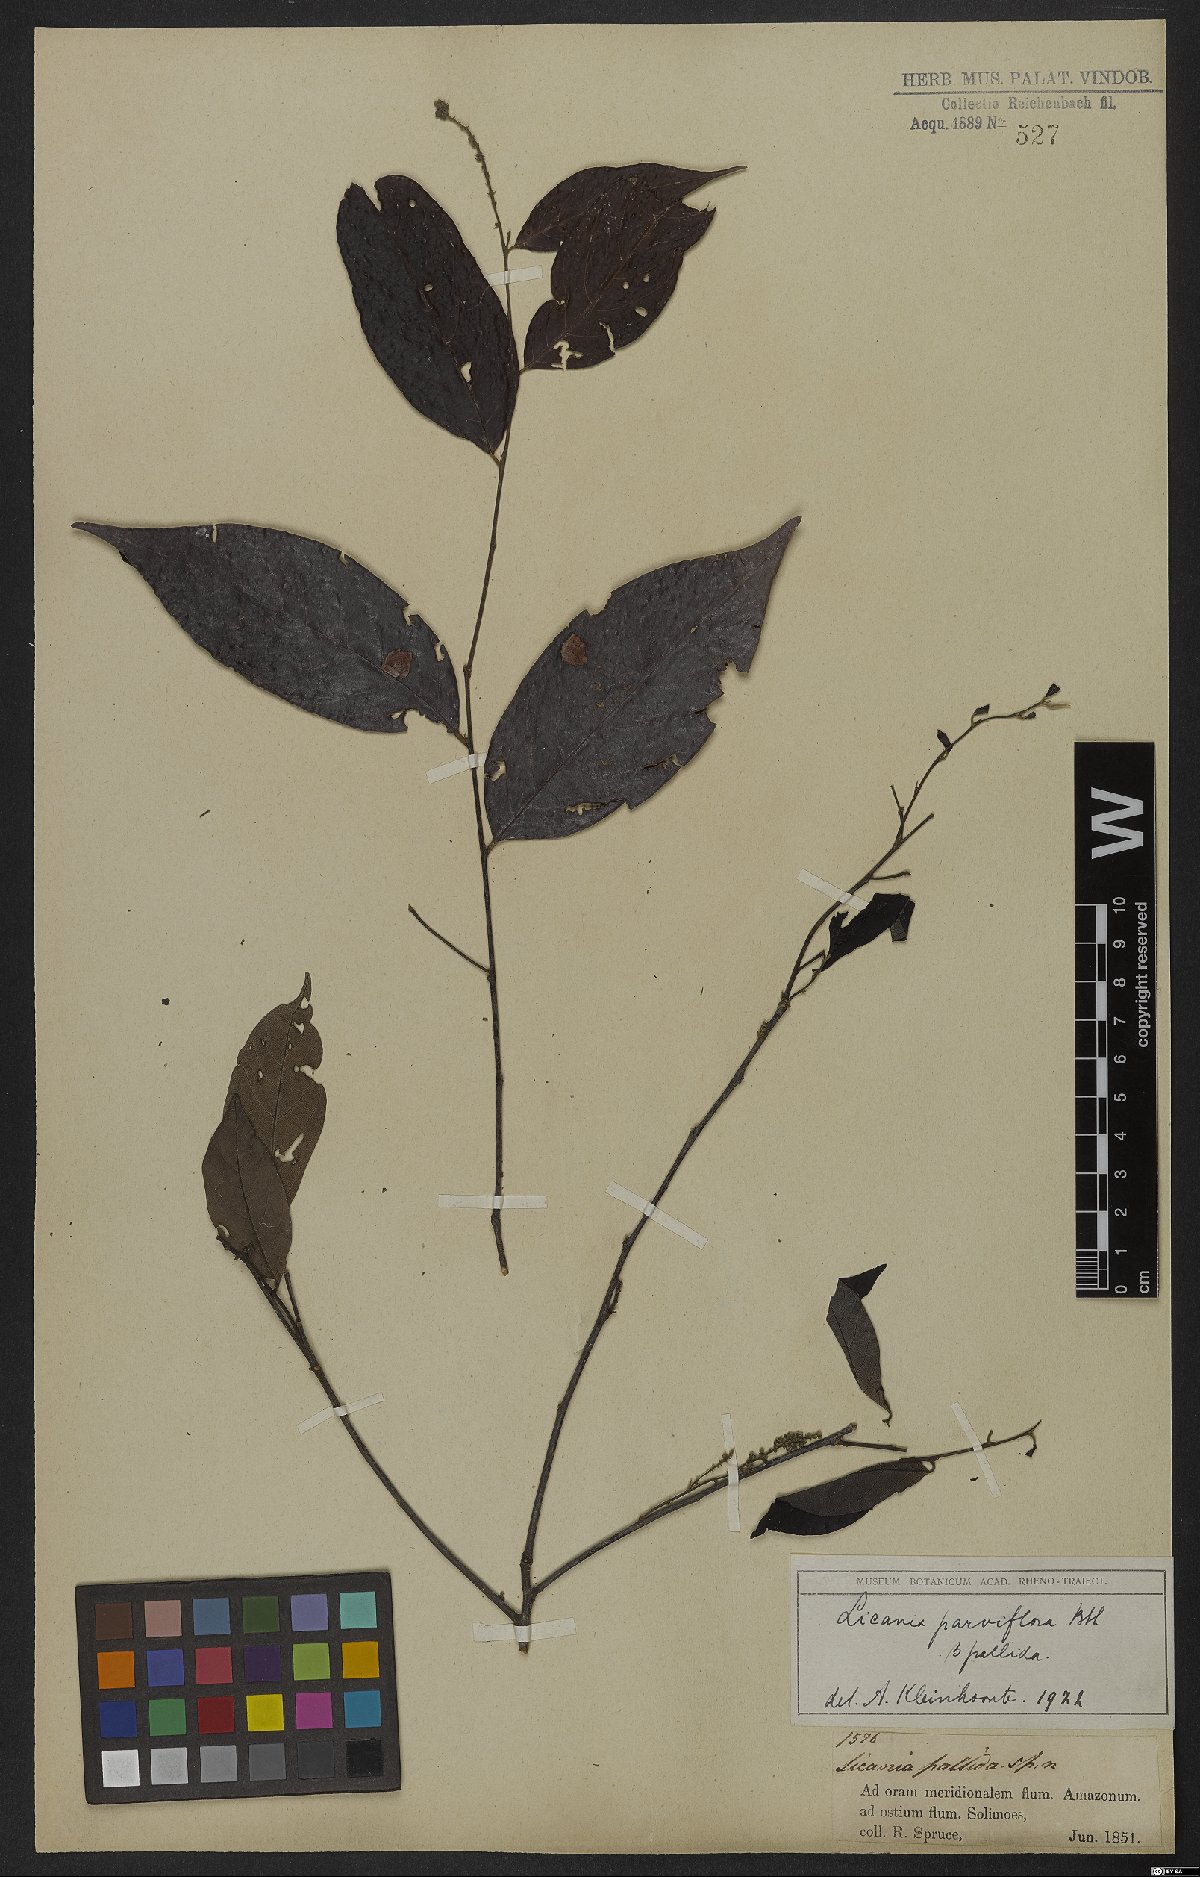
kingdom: Plantae
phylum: Tracheophyta
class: Magnoliopsida
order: Malpighiales
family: Chrysobalanaceae
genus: Leptobalanus
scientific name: Leptobalanus parviflorus
